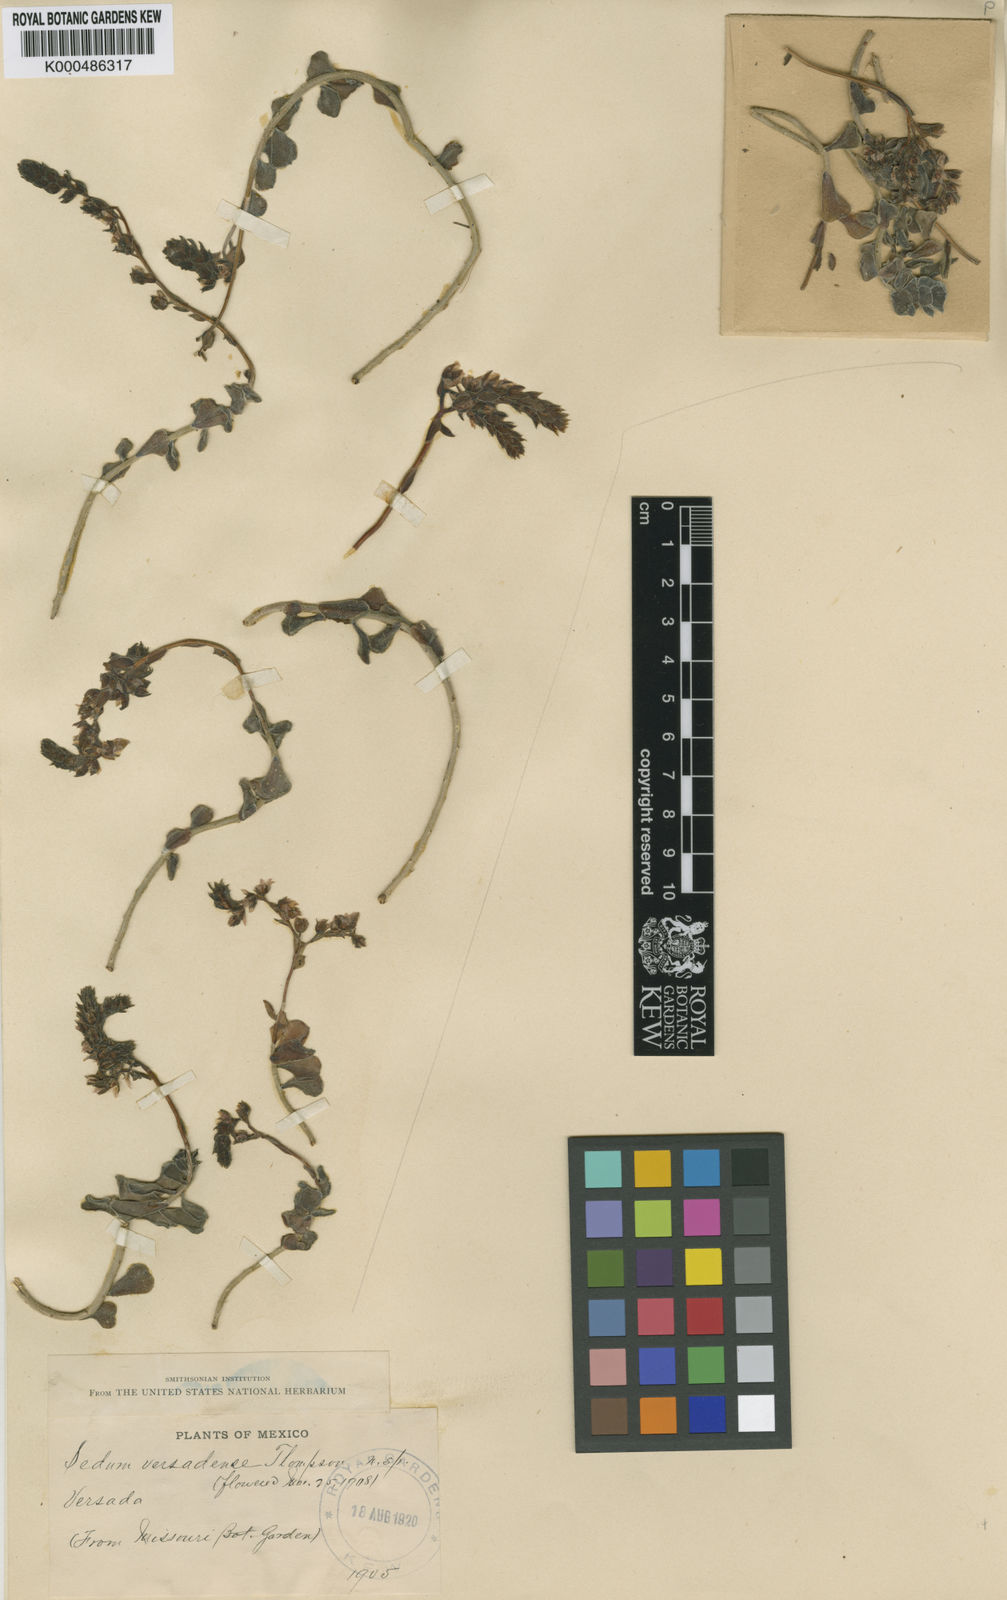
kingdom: Plantae
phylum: Tracheophyta
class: Magnoliopsida
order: Saxifragales
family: Crassulaceae
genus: Sedum
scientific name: Sedum versadense
